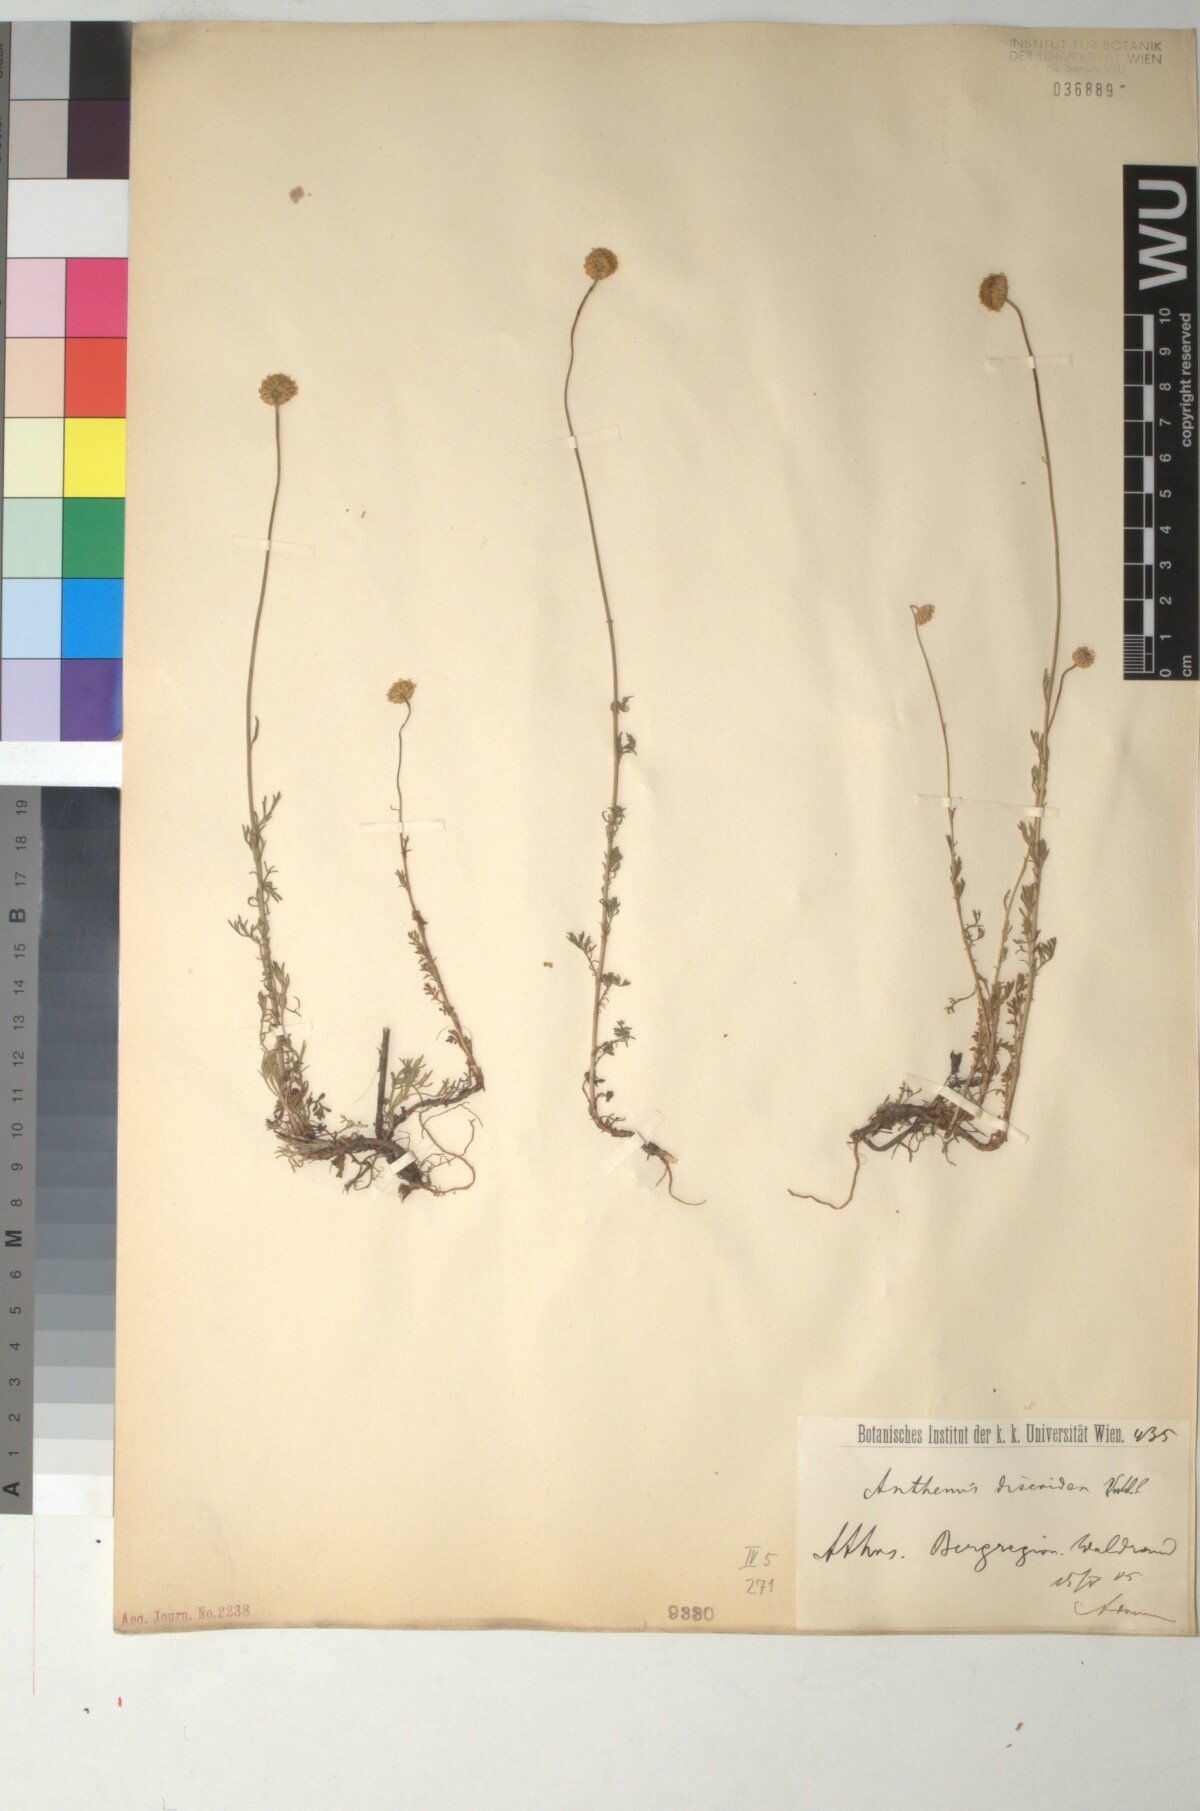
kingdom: Plantae
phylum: Tracheophyta
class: Magnoliopsida
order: Asterales
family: Asteraceae
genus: Cota
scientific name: Cota triumfetti
